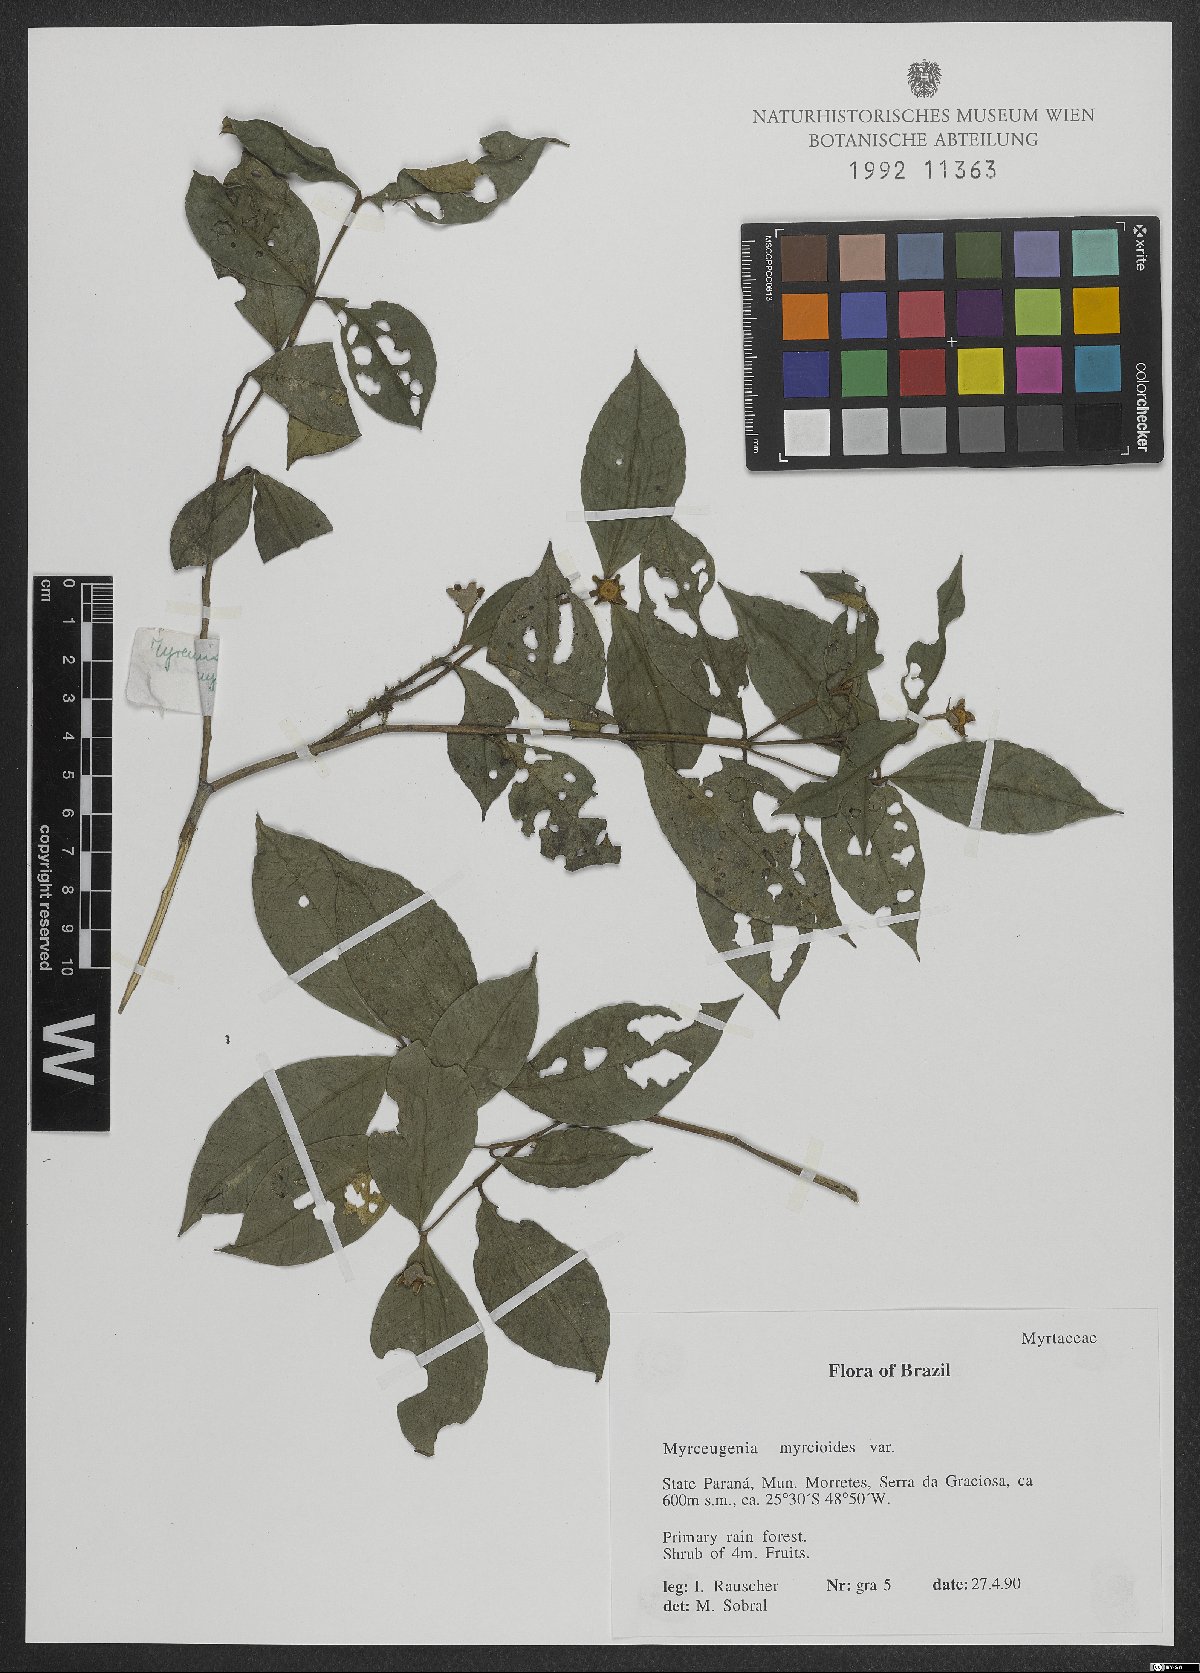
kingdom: Plantae
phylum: Tracheophyta
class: Magnoliopsida
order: Myrtales
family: Myrtaceae
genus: Myrceugenia
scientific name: Myrceugenia myrcioides
